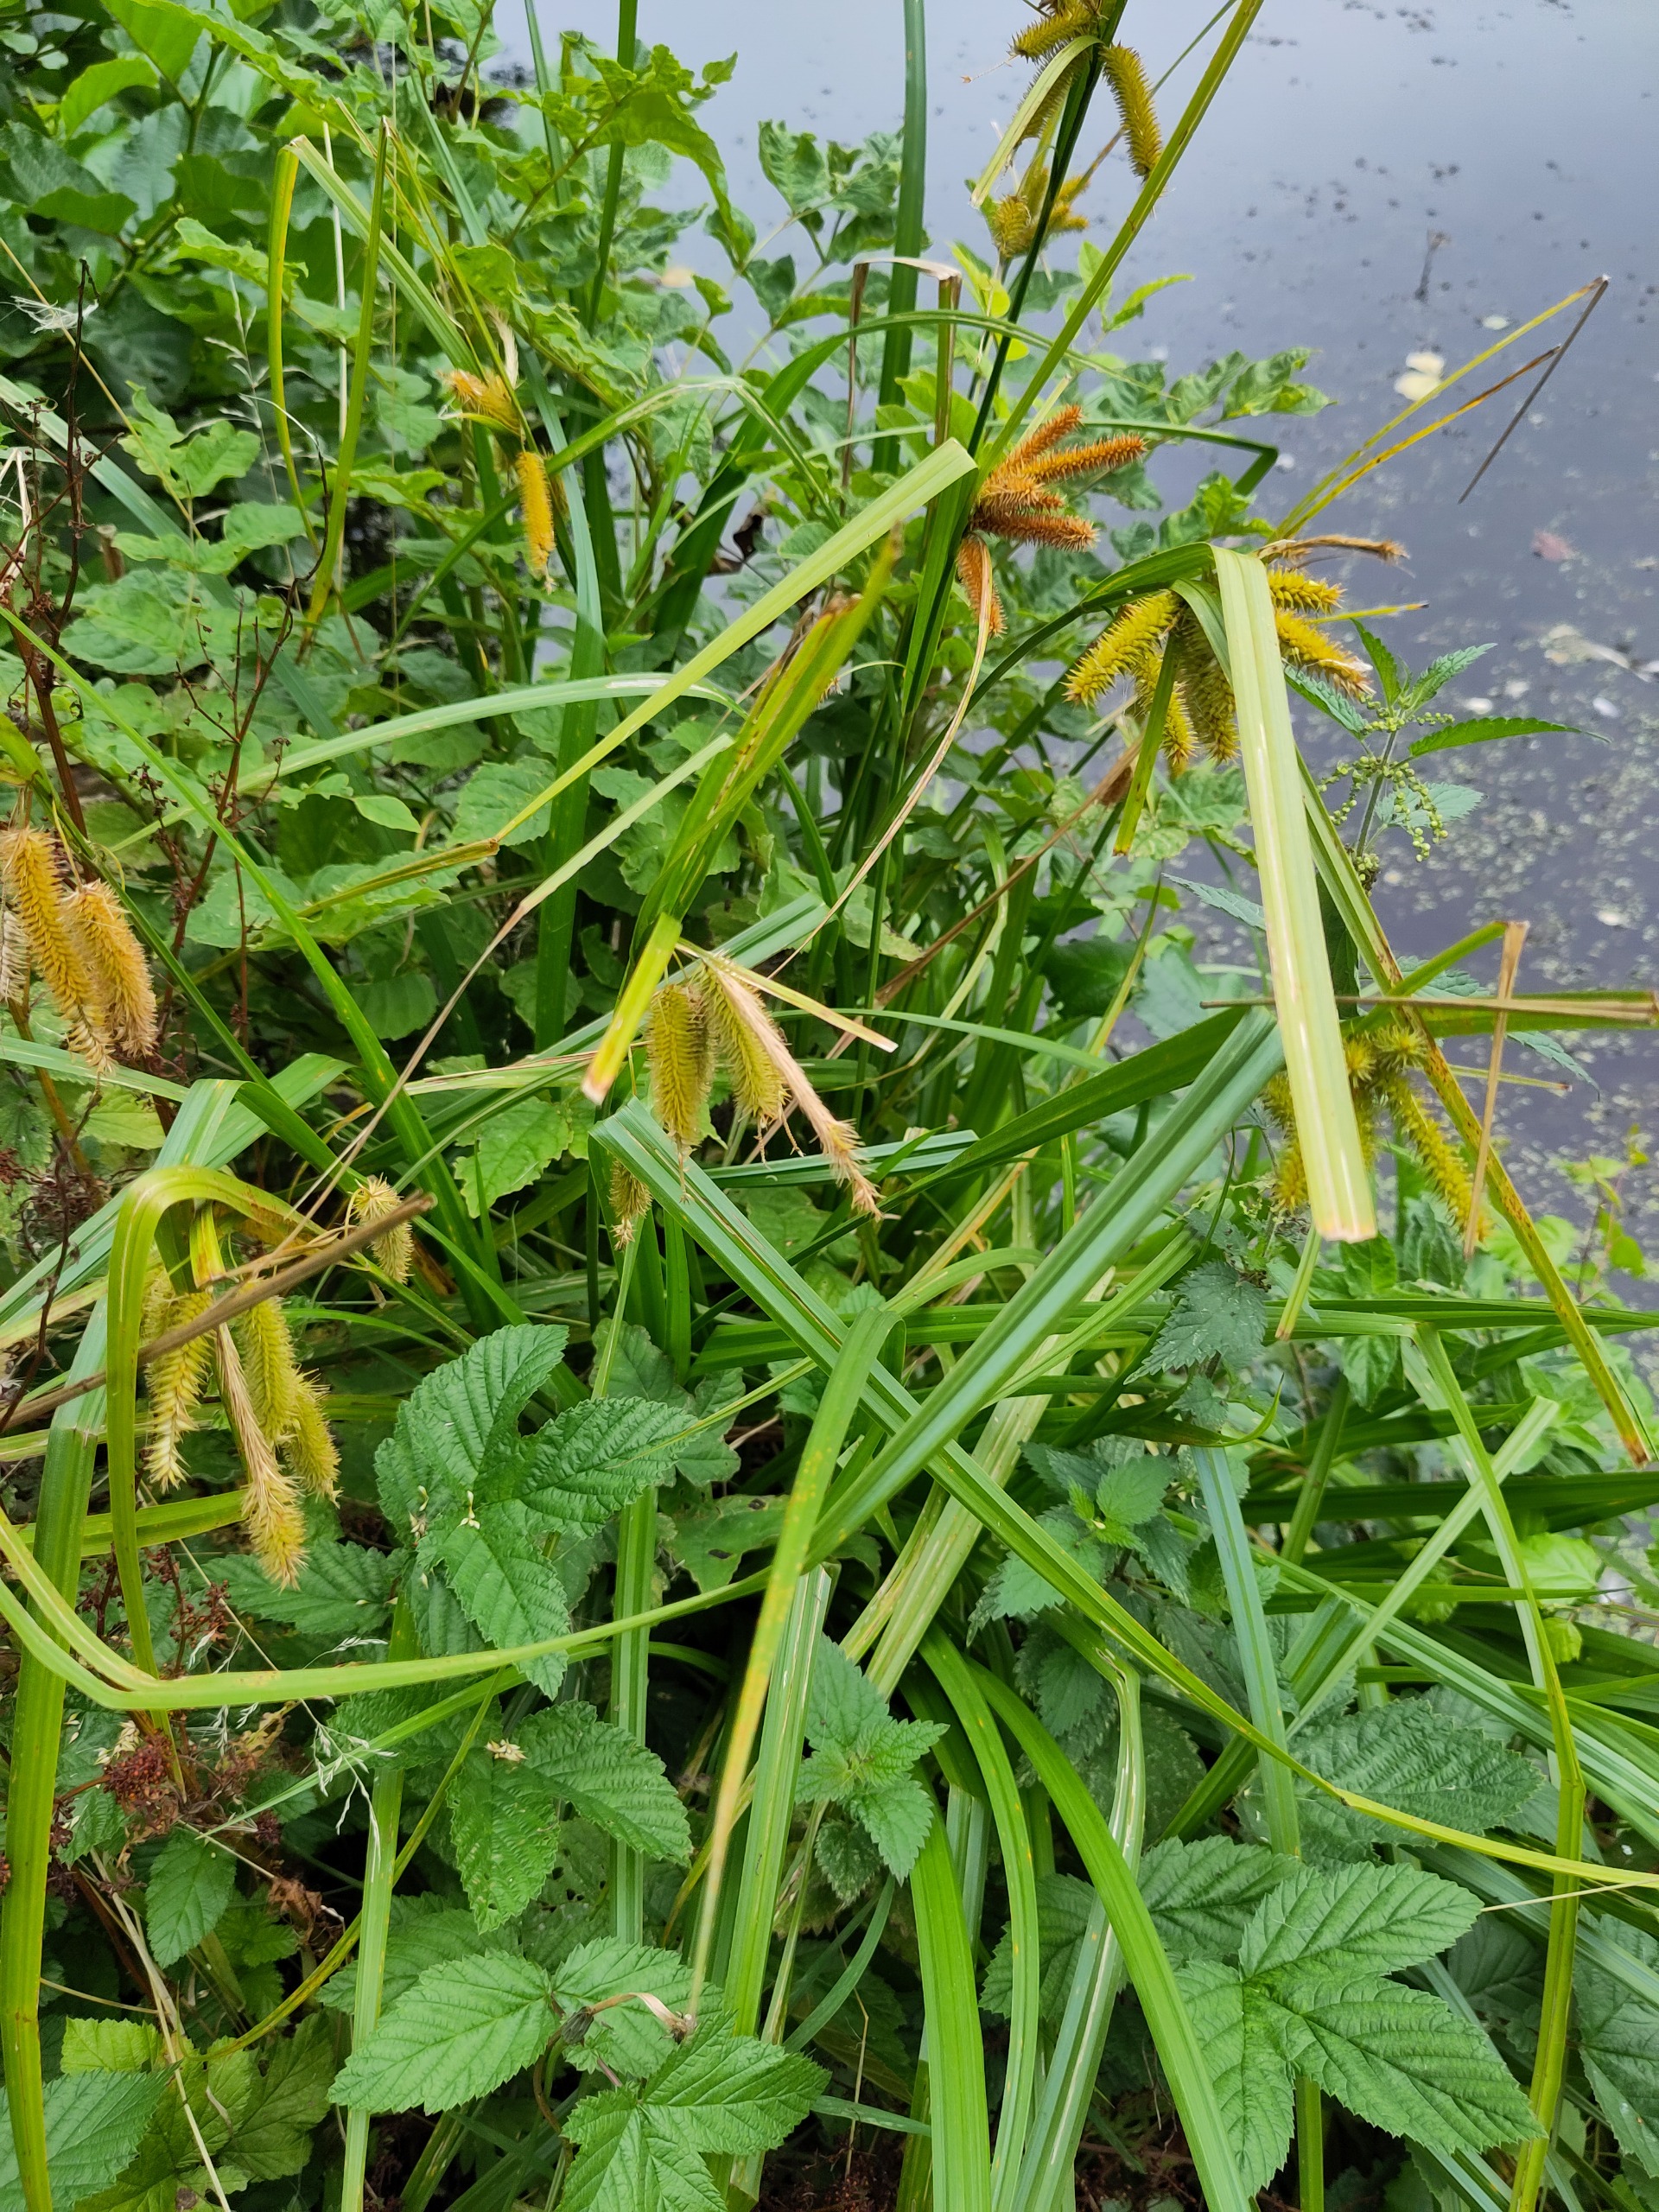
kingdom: Plantae
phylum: Tracheophyta
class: Liliopsida
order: Poales
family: Cyperaceae
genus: Carex
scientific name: Carex pseudocyperus
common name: Knippe-star
